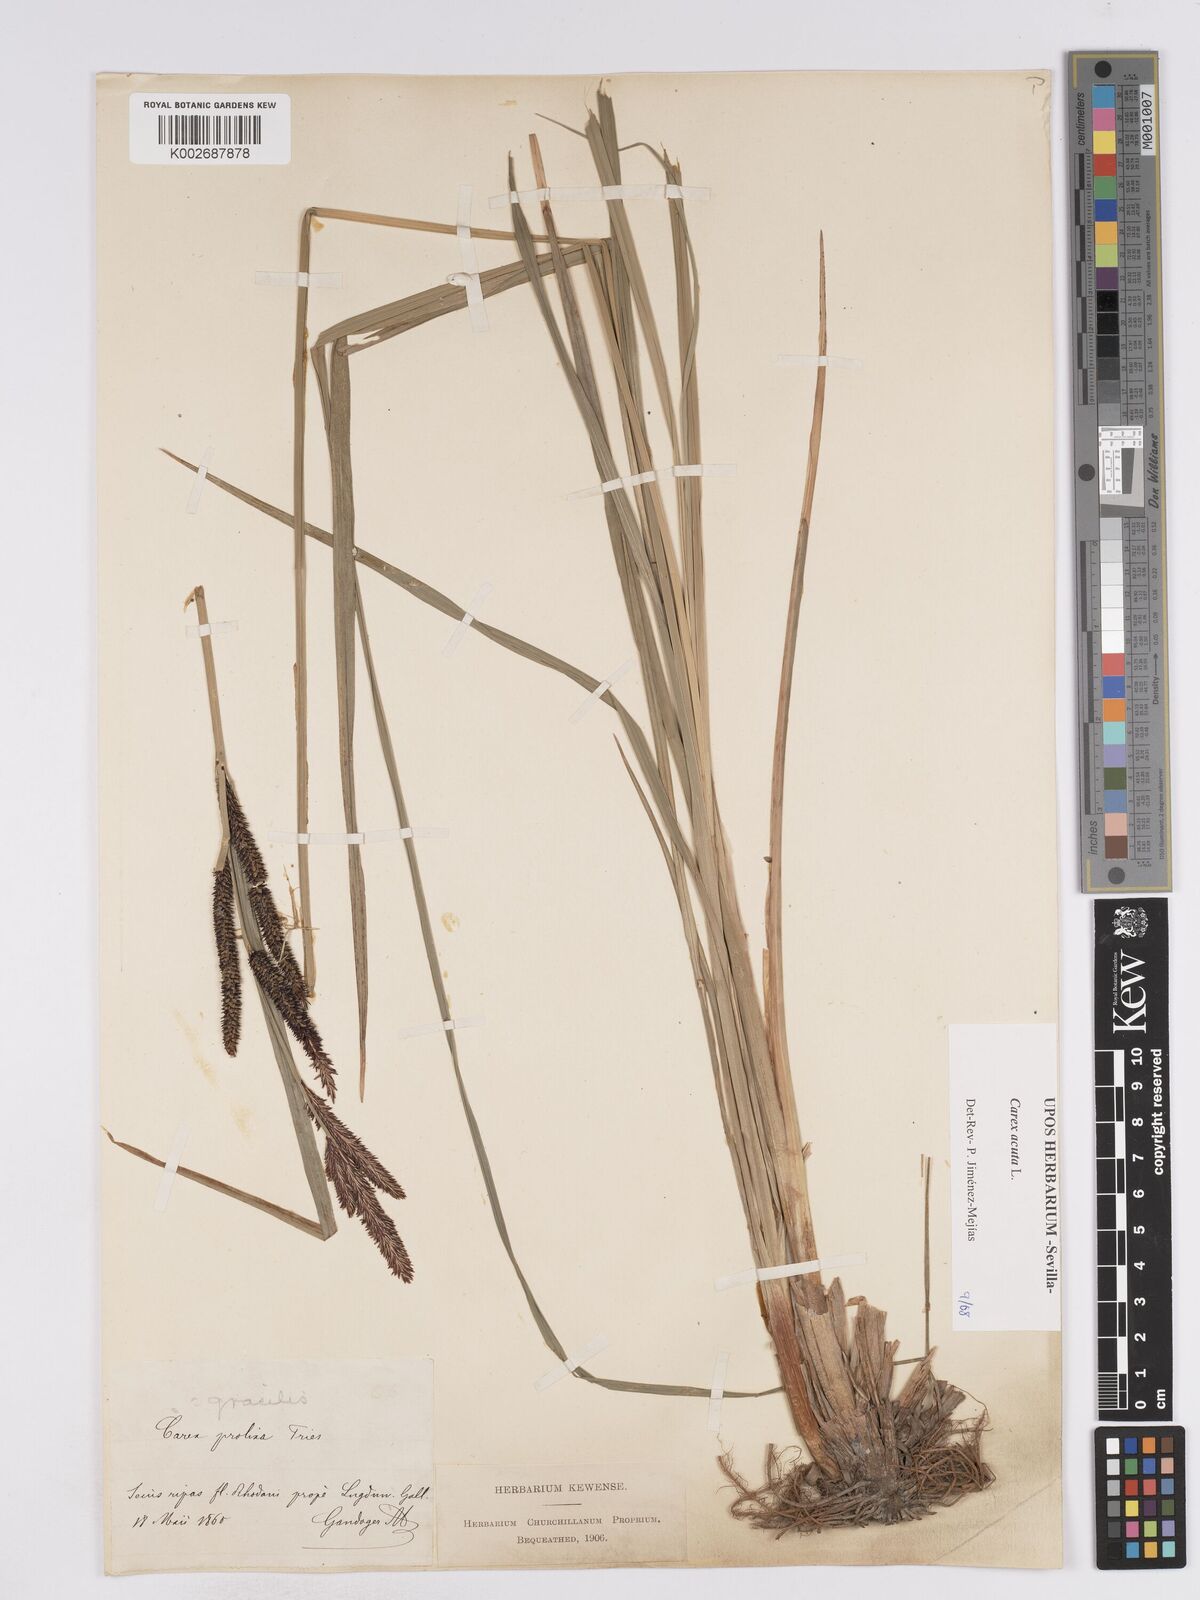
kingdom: Plantae
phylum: Tracheophyta
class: Liliopsida
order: Poales
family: Cyperaceae
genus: Carex
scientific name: Carex acuta
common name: Slender tufted-sedge
